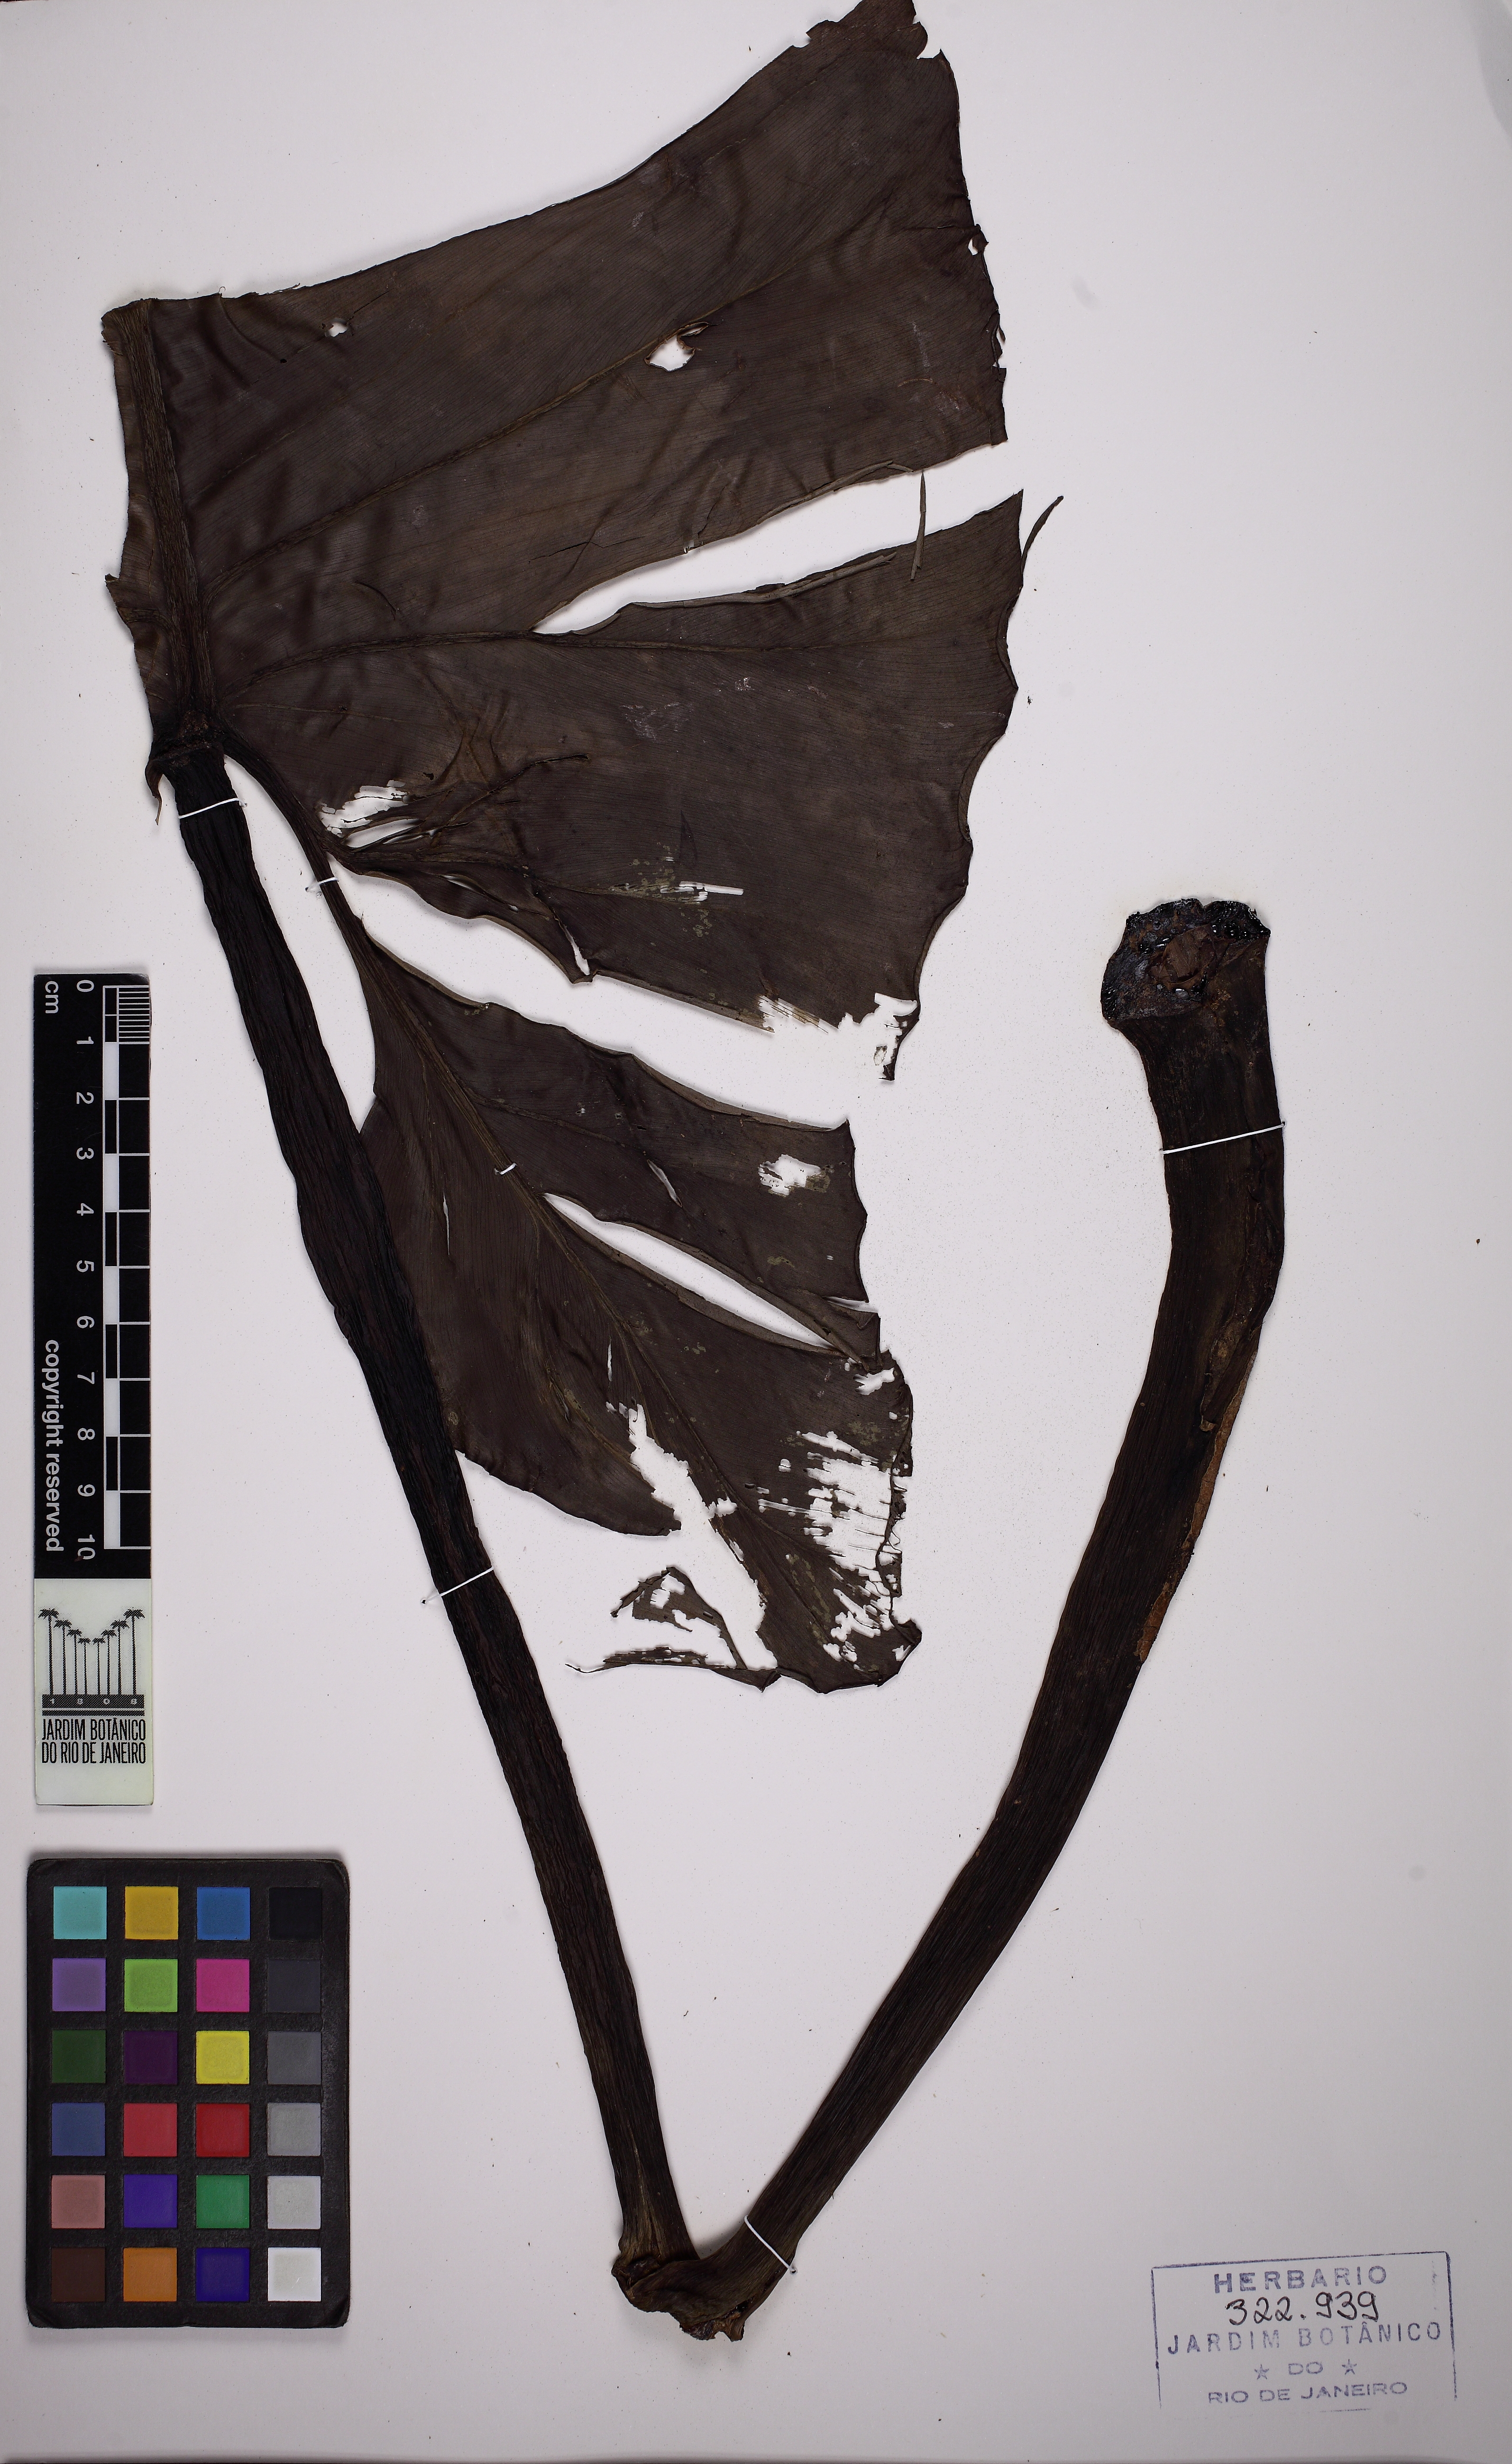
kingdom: Plantae
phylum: Tracheophyta
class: Liliopsida
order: Alismatales
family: Araceae
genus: Philodendron
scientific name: Philodendron cordatum
